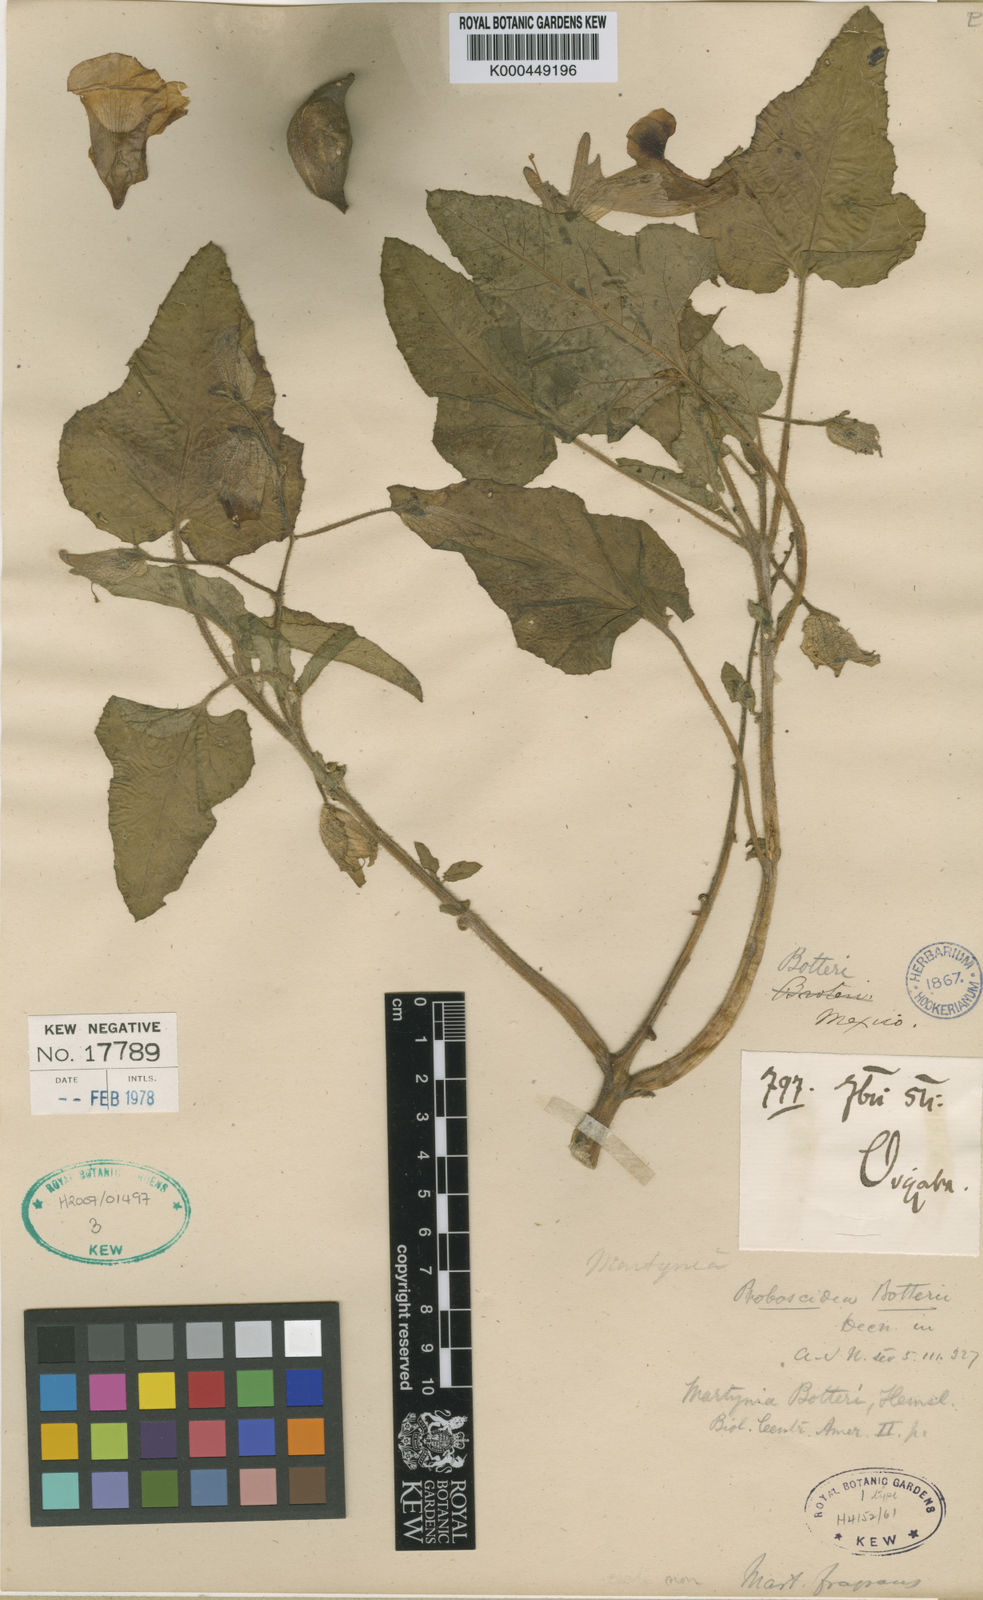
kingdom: Plantae
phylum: Tracheophyta
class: Magnoliopsida
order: Lamiales
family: Martyniaceae
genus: Proboscidea
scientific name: Proboscidea triloba
